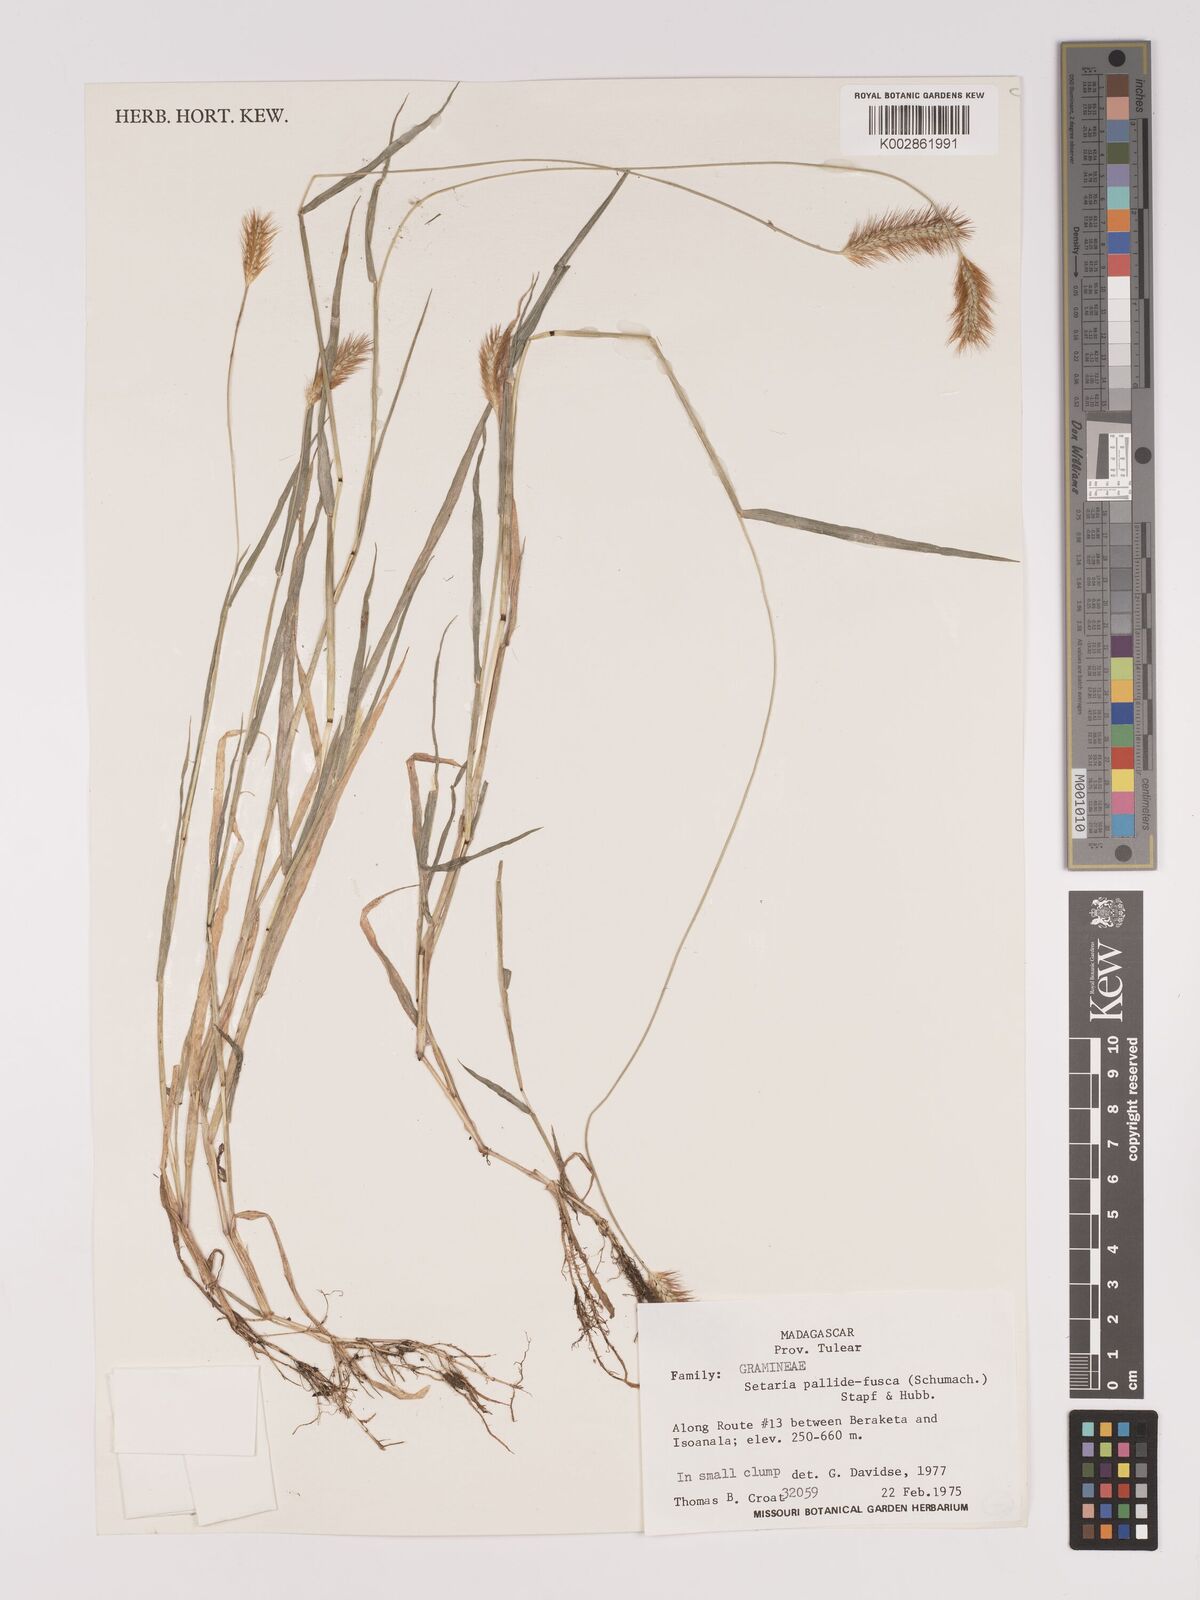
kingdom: Plantae
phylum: Tracheophyta
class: Liliopsida
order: Poales
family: Poaceae
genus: Setaria
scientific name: Setaria pumila
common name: Yellow bristle-grass
